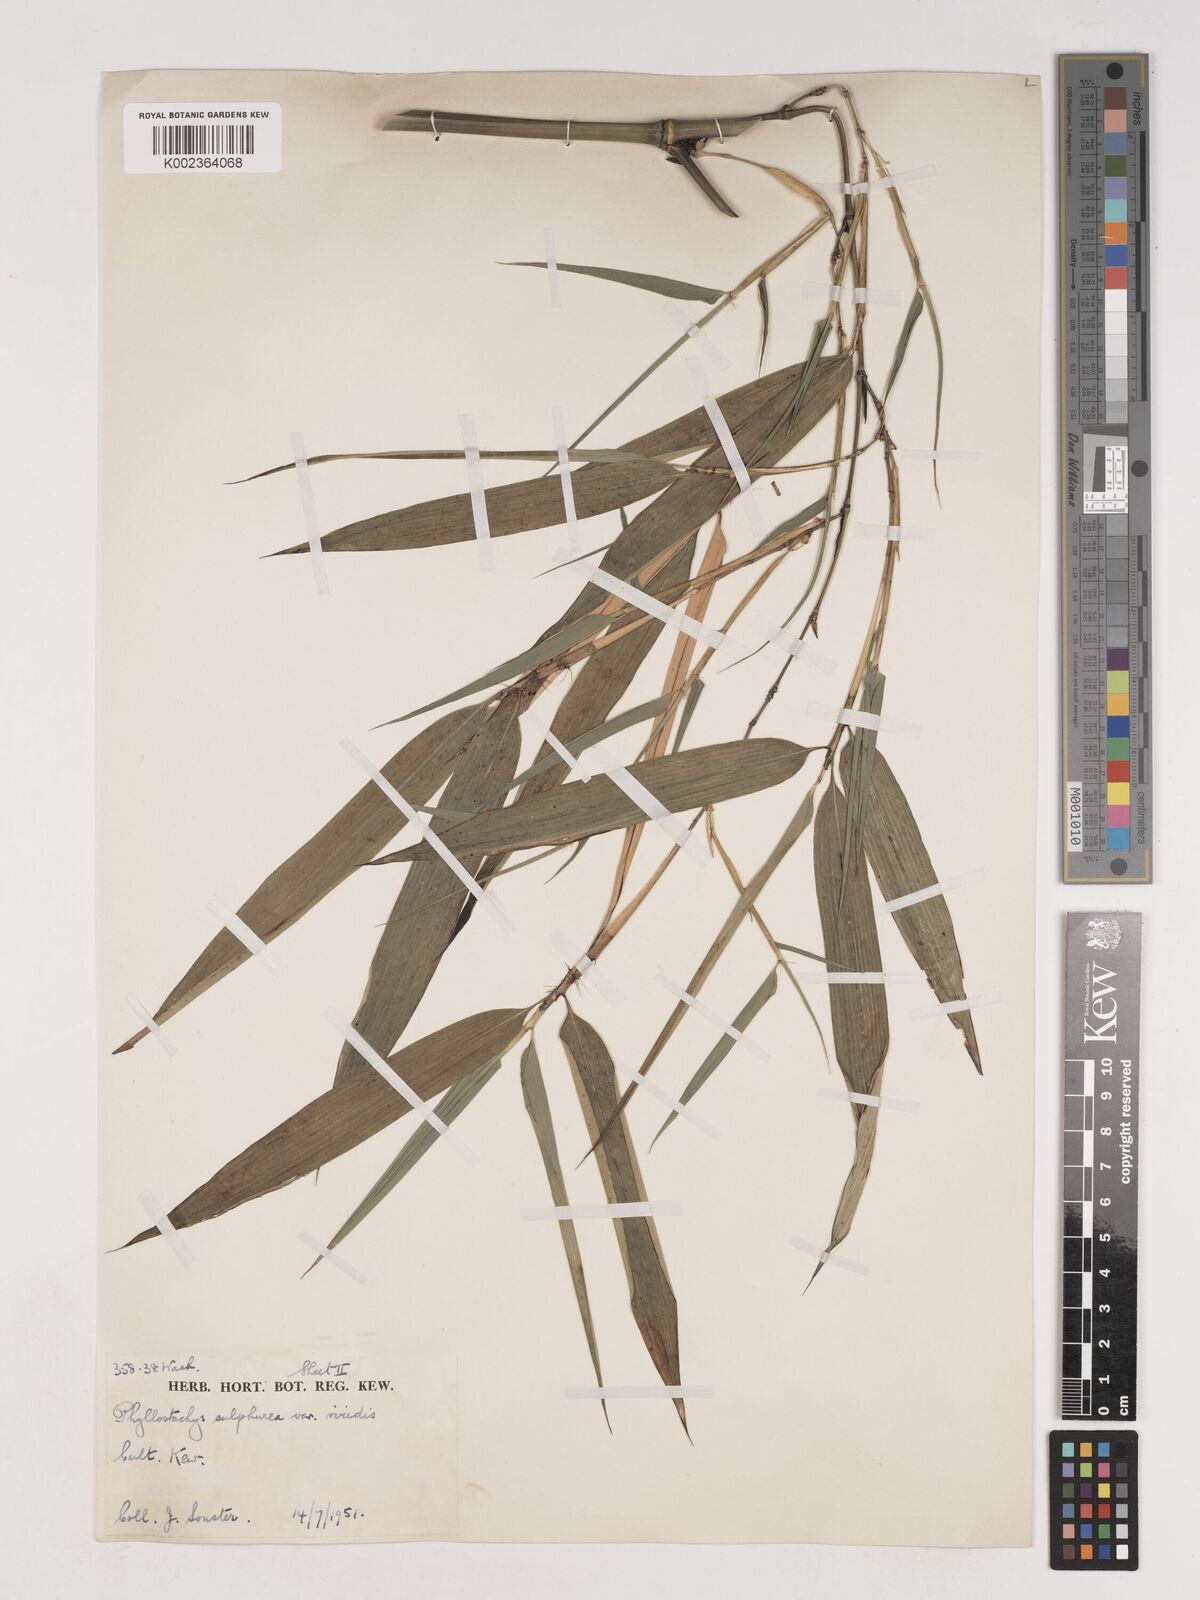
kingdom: Plantae
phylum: Tracheophyta
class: Liliopsida
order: Poales
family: Poaceae
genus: Phyllostachys
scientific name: Phyllostachys sulphurea
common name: Sulphur bamboo
